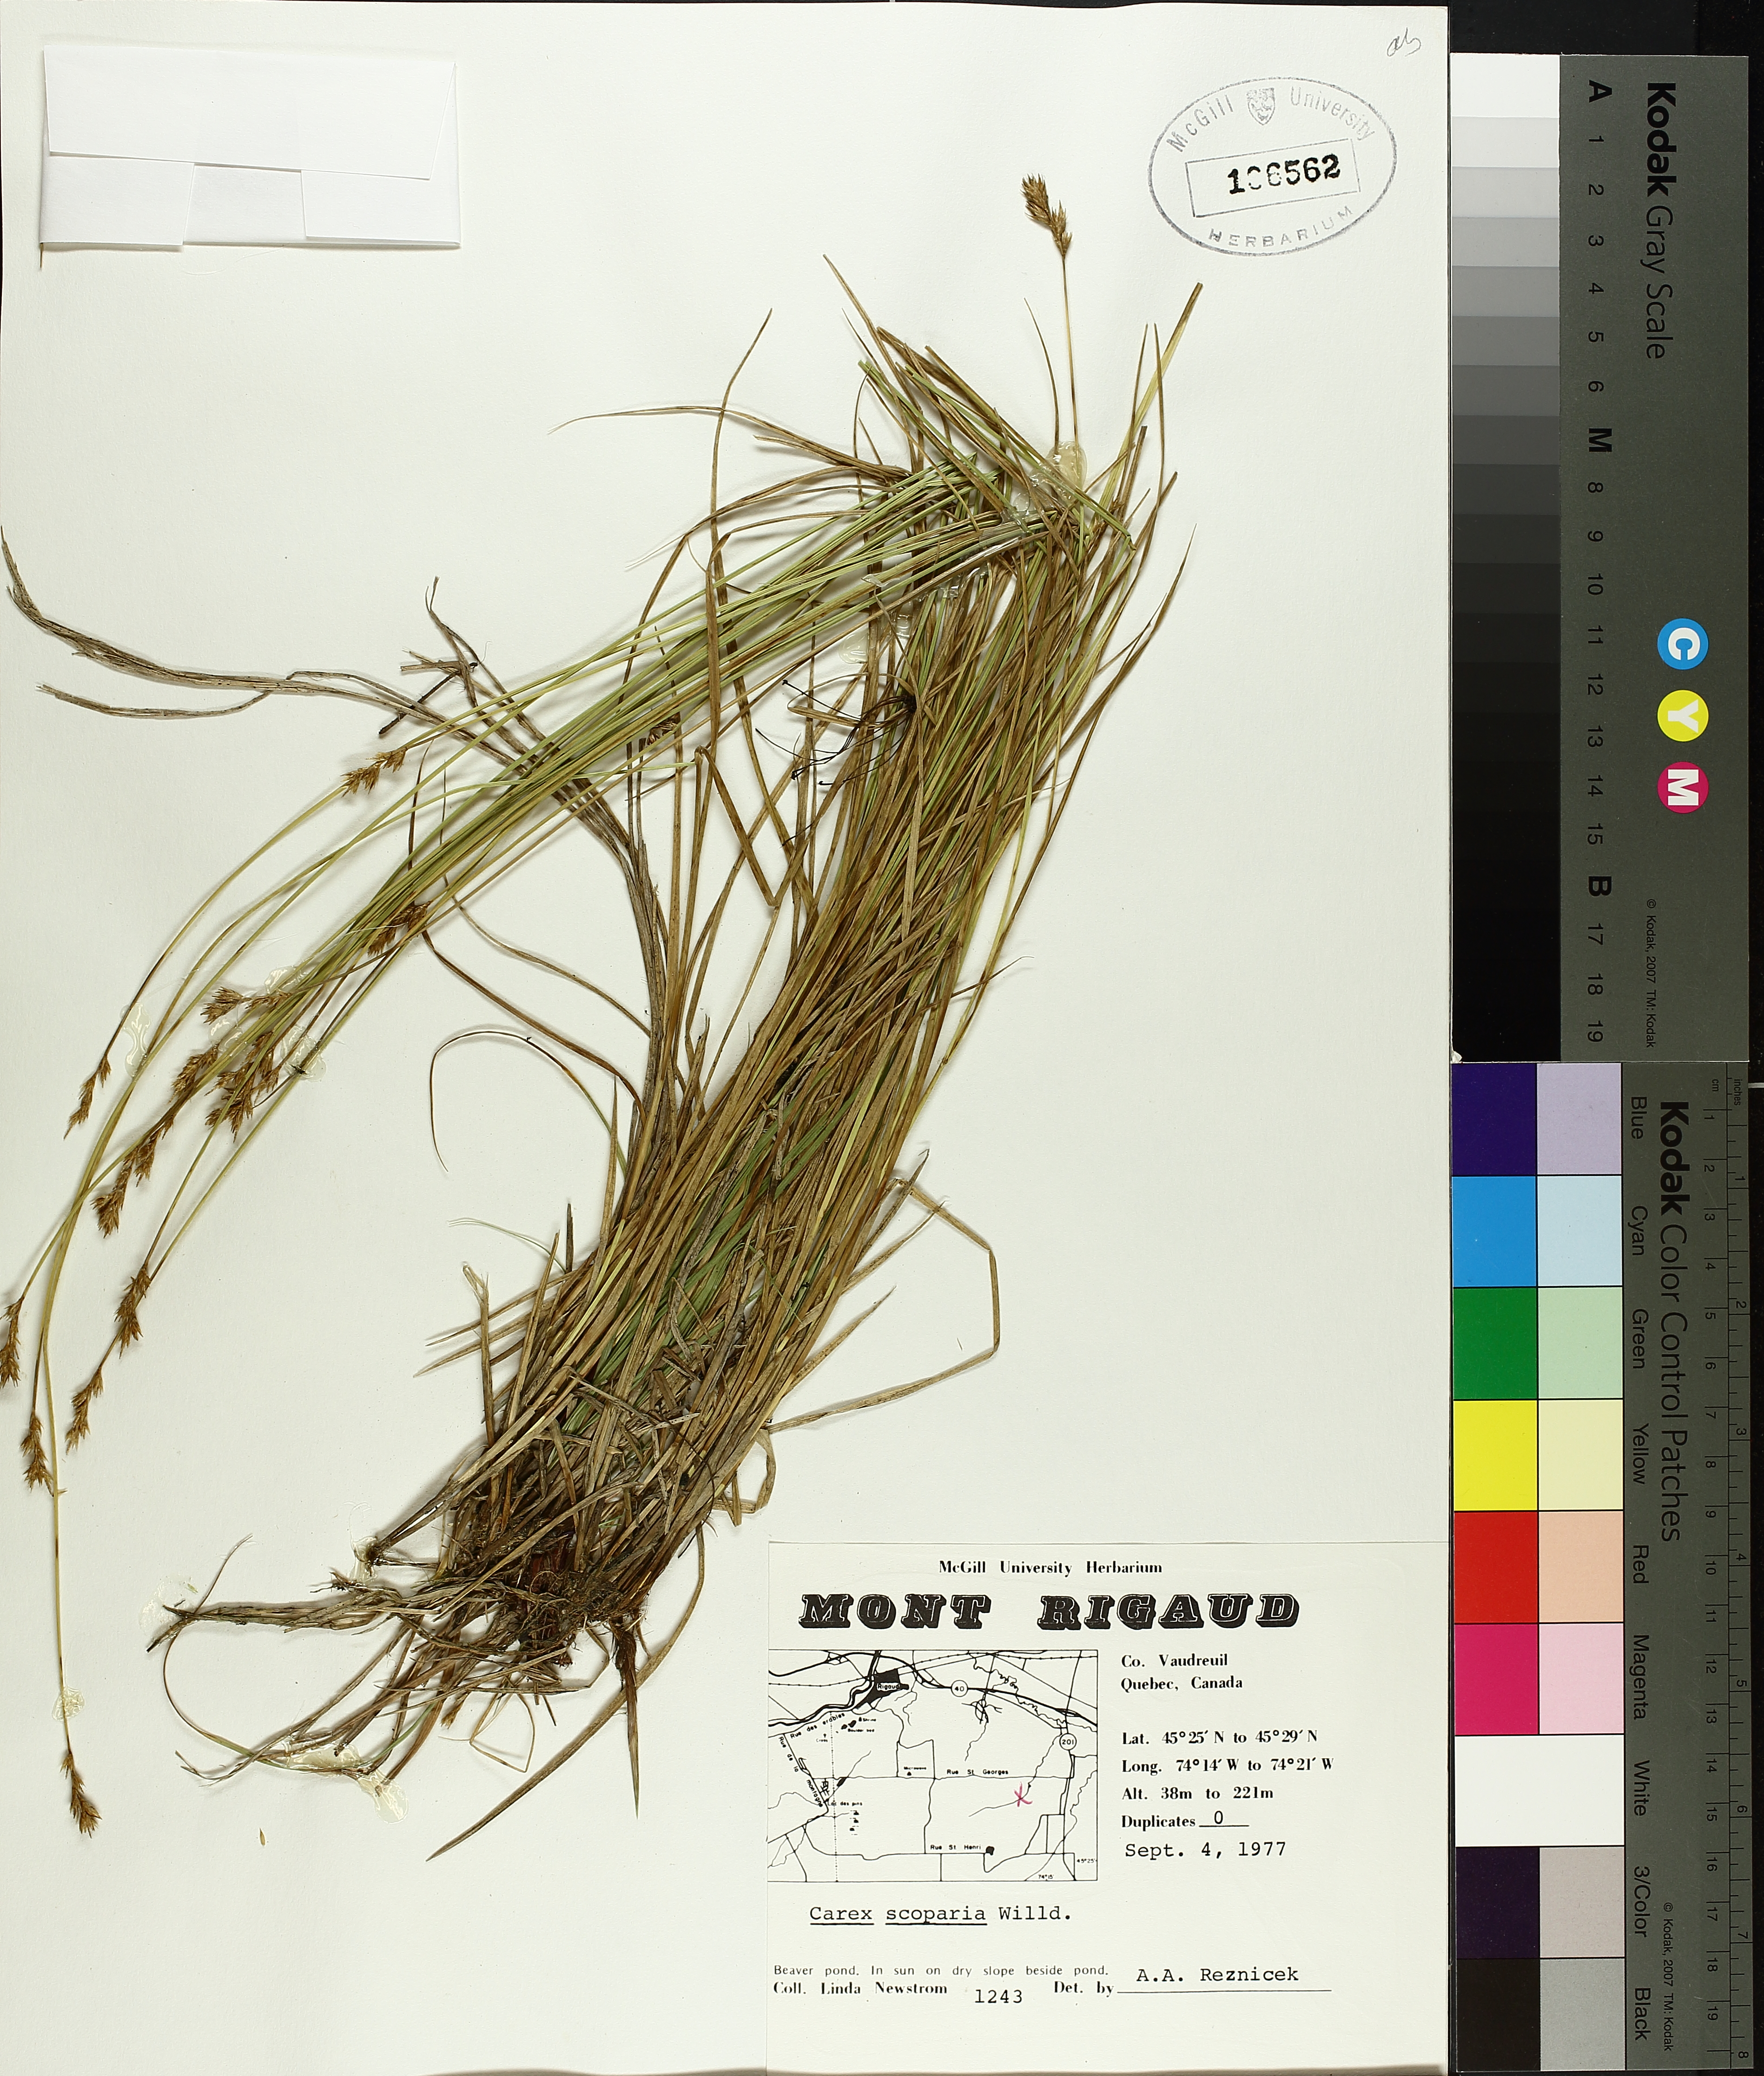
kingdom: Plantae
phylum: Tracheophyta
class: Liliopsida
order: Poales
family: Cyperaceae
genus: Carex
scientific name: Carex scoparia
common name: Broom sedge
